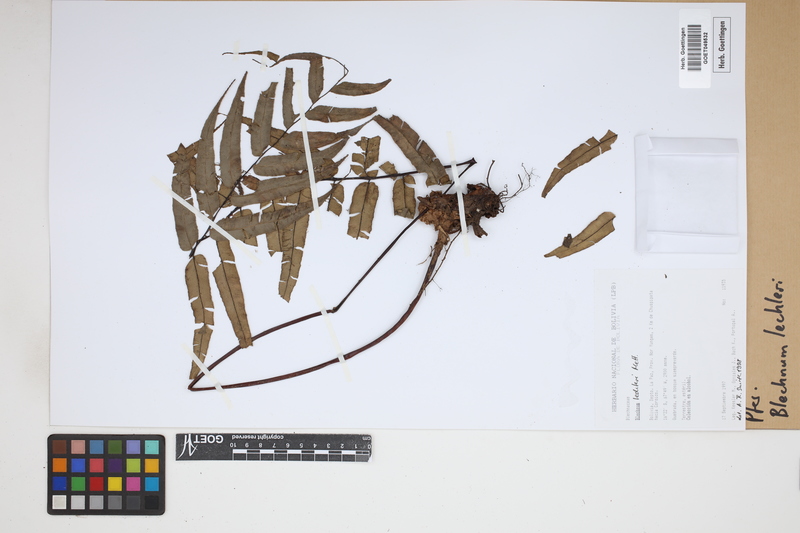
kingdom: Plantae
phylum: Tracheophyta
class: Polypodiopsida
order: Polypodiales
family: Blechnaceae
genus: Parablechnum
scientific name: Parablechnum lechleri
